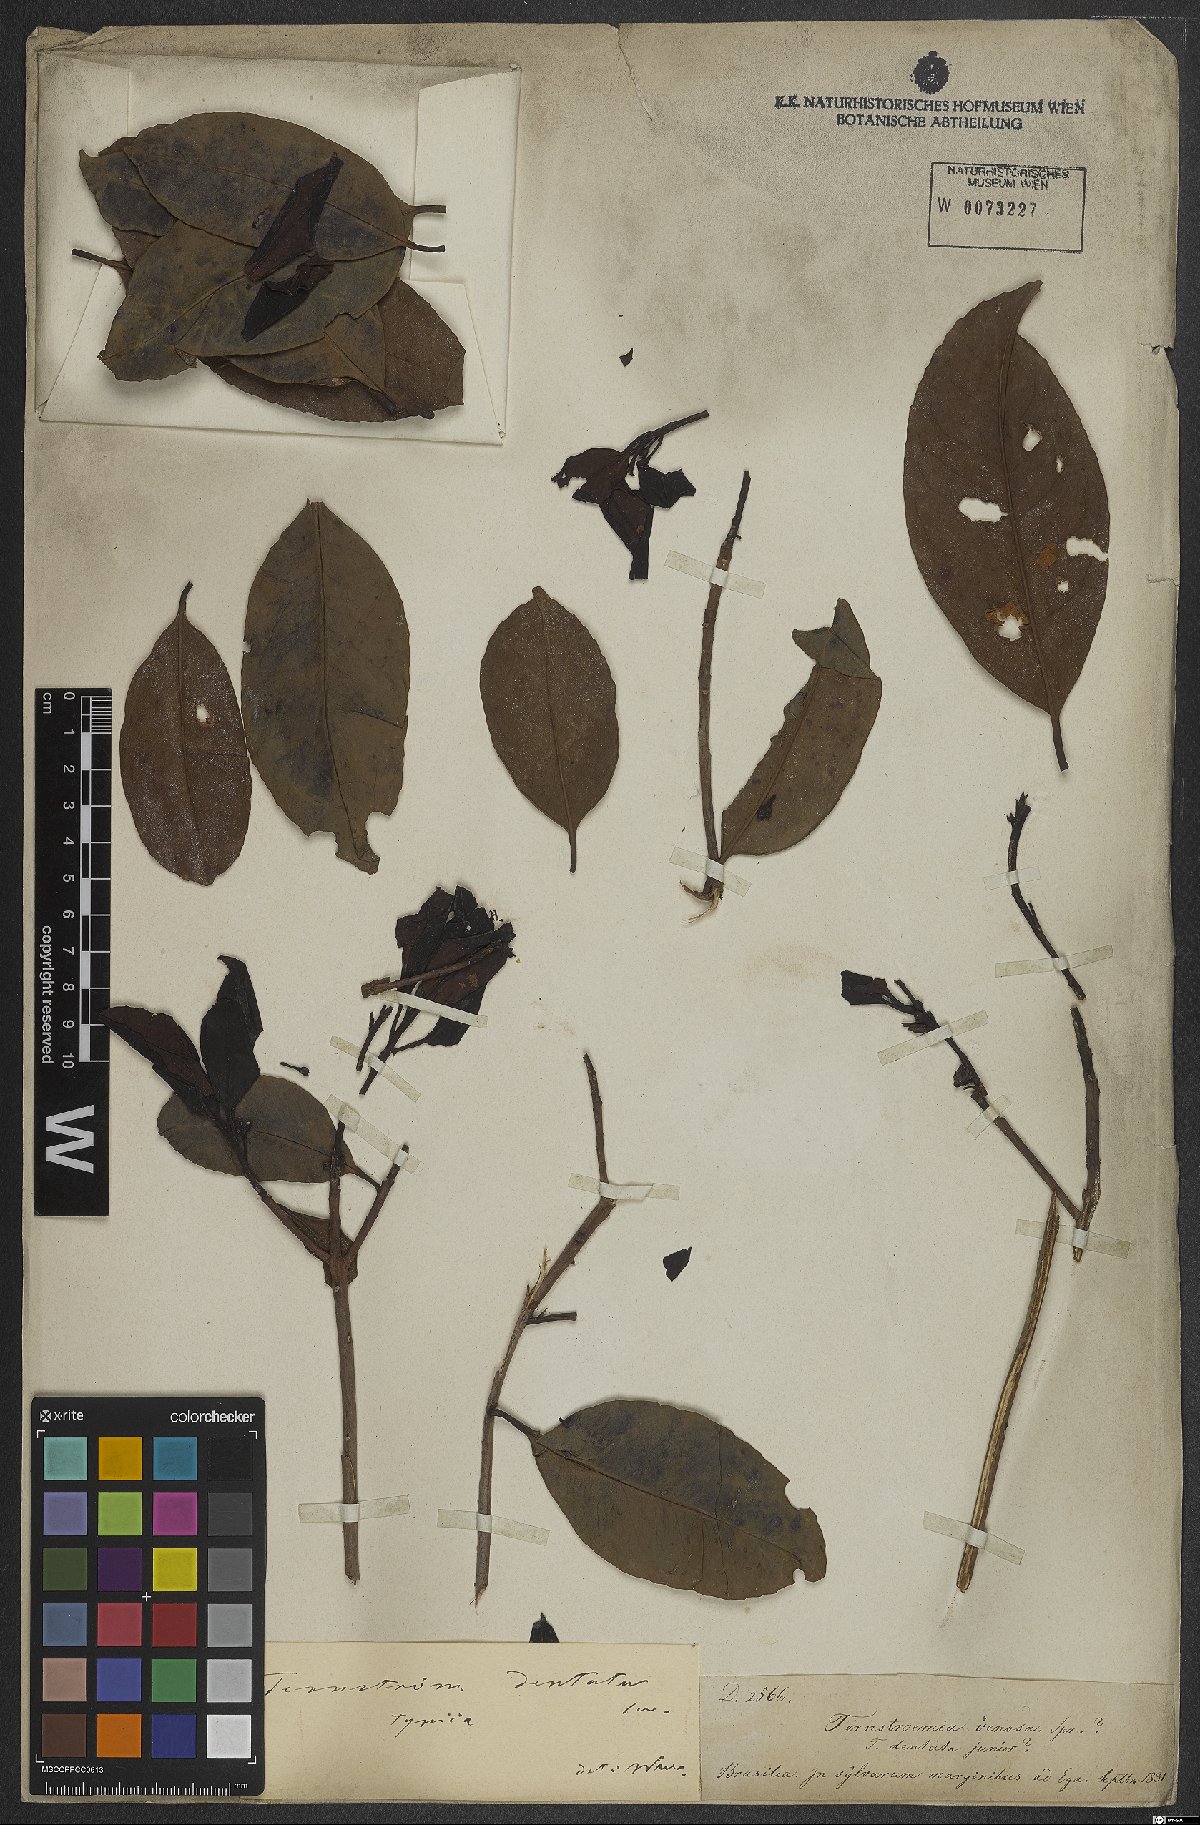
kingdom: Plantae
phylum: Tracheophyta
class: Magnoliopsida
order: Ericales
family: Pentaphylacaceae
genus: Ternstroemia
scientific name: Ternstroemia dentata
